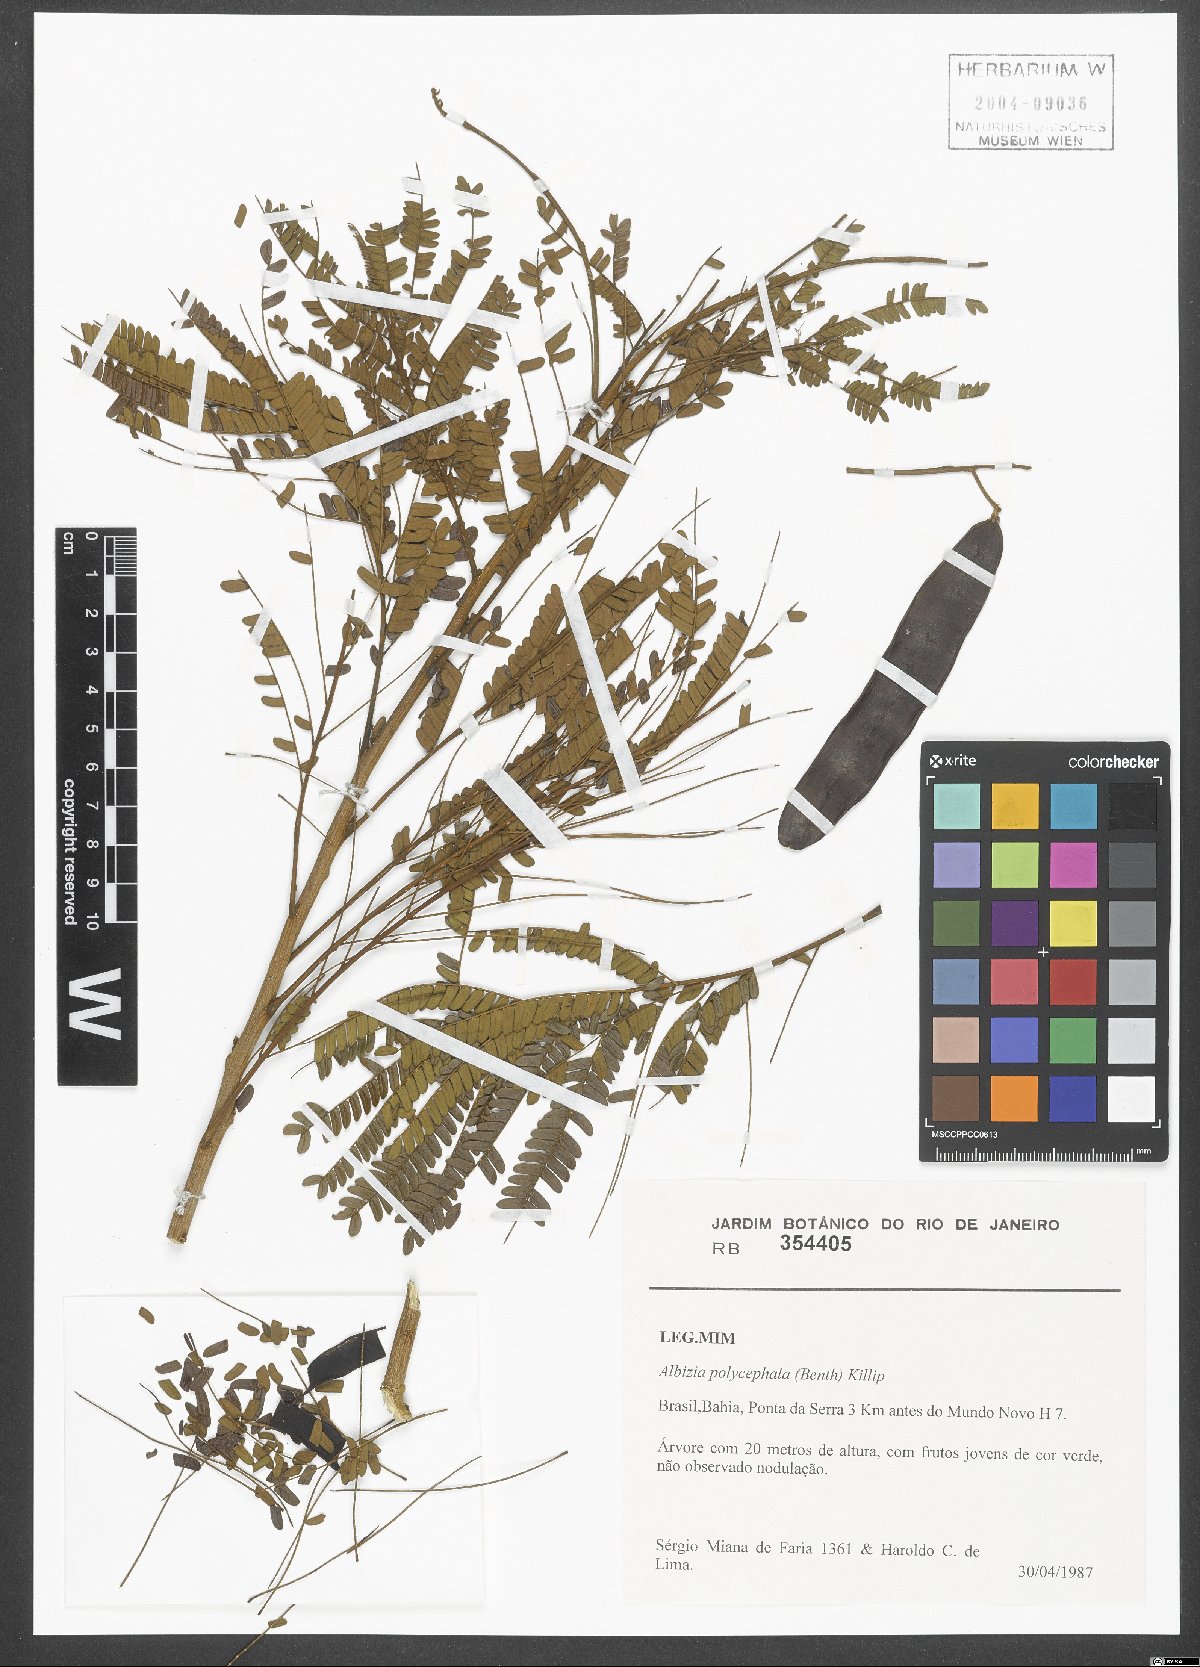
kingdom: Plantae
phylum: Tracheophyta
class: Magnoliopsida
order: Fabales
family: Fabaceae
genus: Albizia
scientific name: Albizia polycephala
